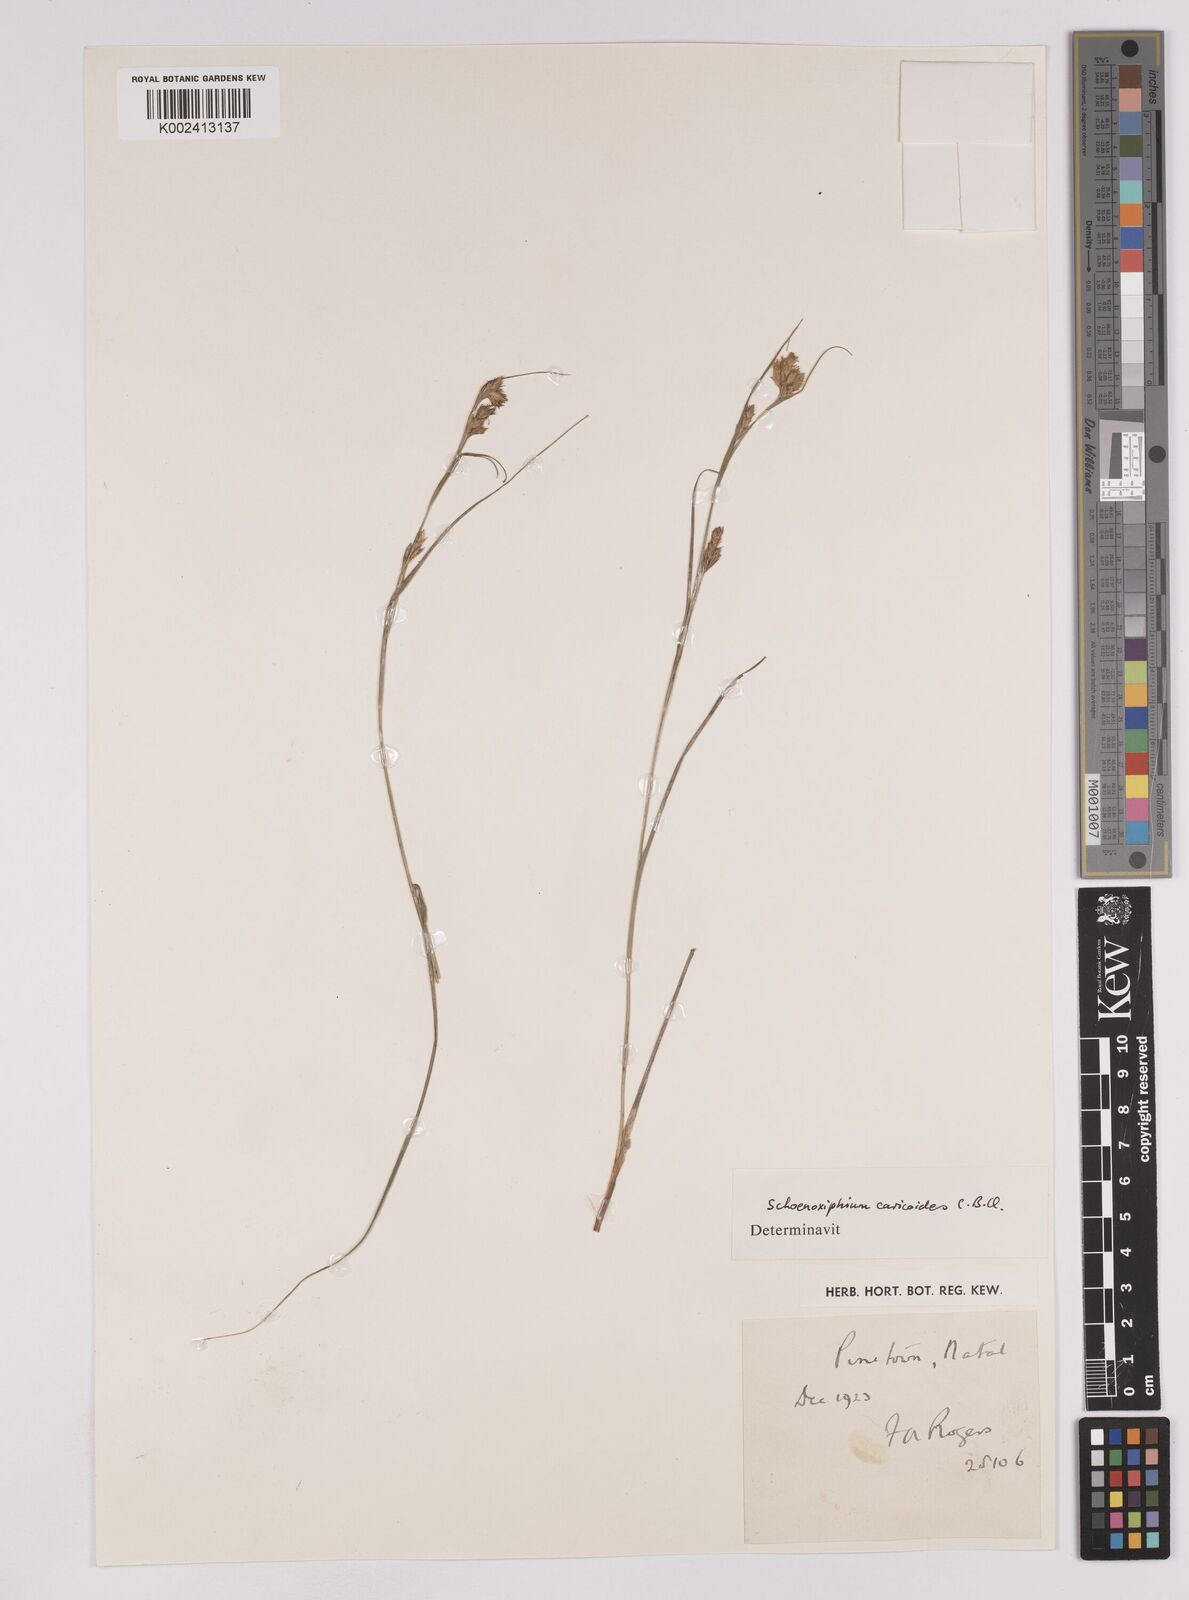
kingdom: Plantae
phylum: Tracheophyta
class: Liliopsida
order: Poales
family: Cyperaceae
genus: Carex
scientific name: Carex spartea
